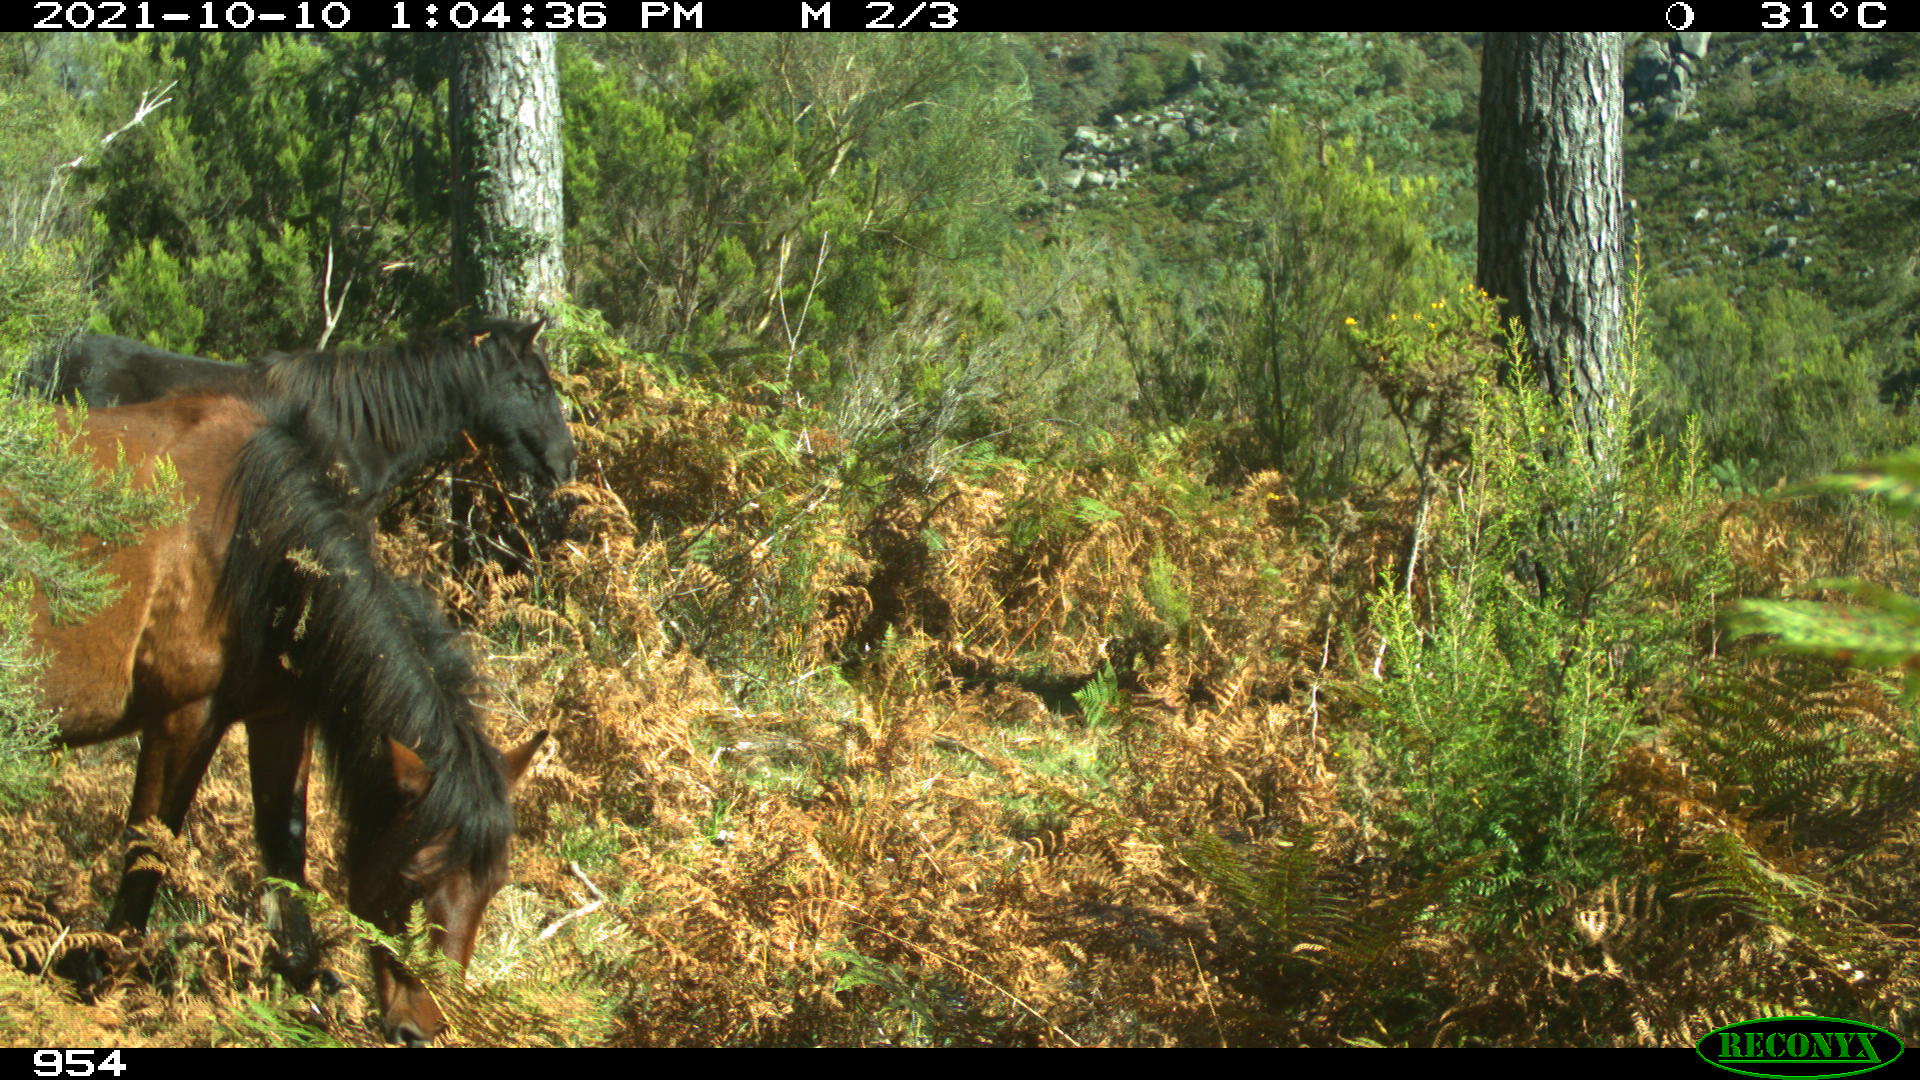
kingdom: Animalia
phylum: Chordata
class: Mammalia
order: Perissodactyla
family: Equidae
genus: Equus
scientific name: Equus caballus
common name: Horse
